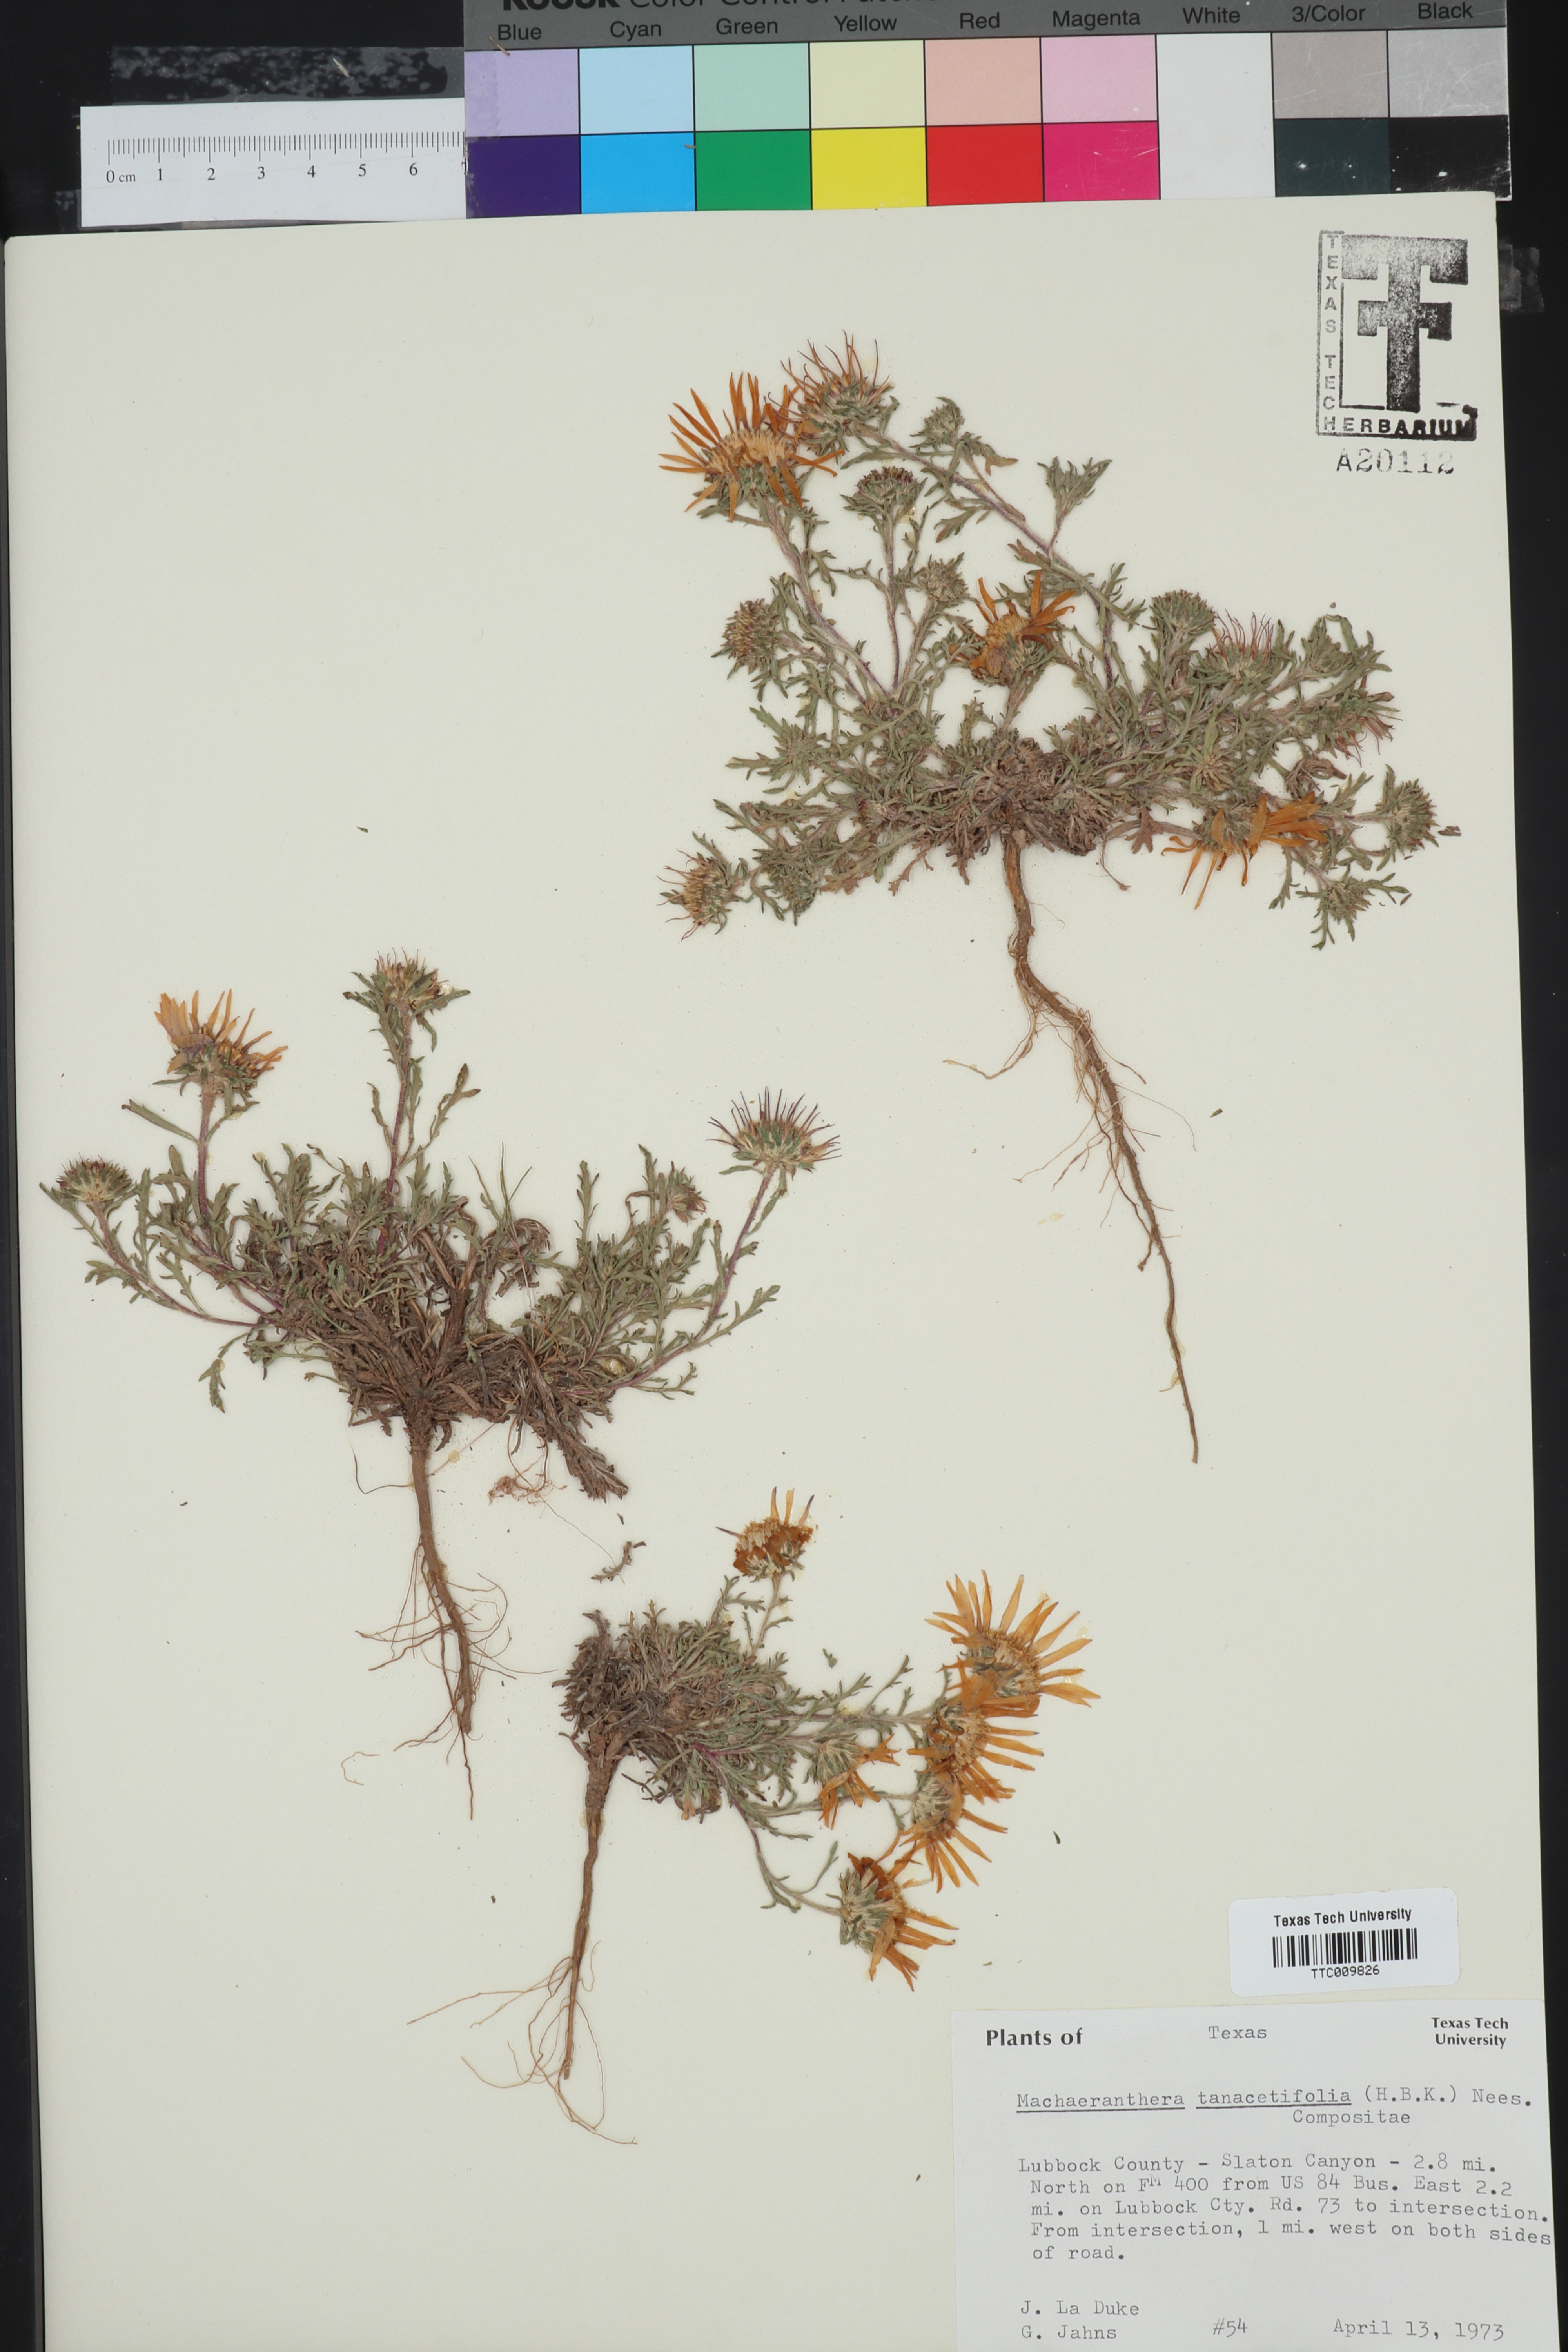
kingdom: Plantae
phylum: Tracheophyta
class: Magnoliopsida
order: Asterales
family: Asteraceae
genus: Machaeranthera
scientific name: Machaeranthera tanacetifolia
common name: Tansy-aster
